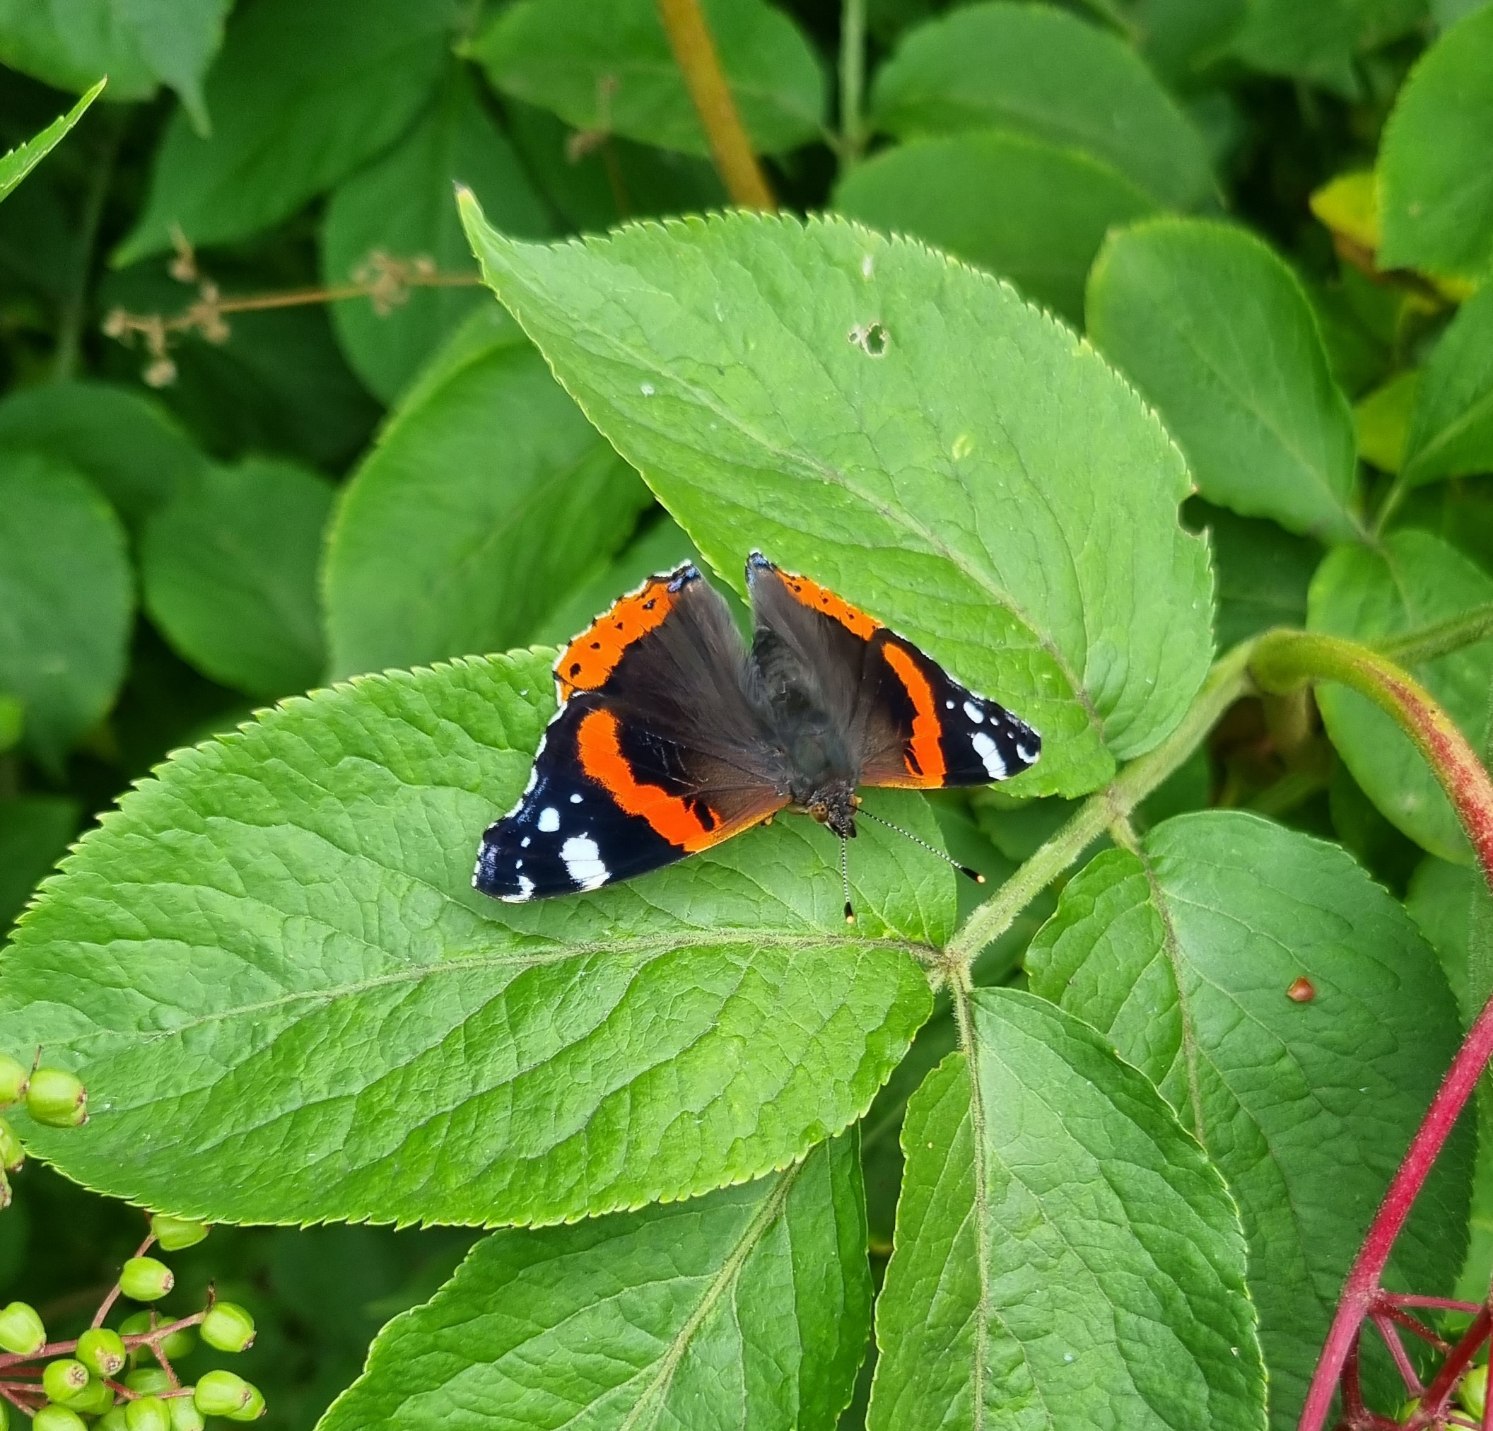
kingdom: Animalia
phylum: Arthropoda
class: Insecta
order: Lepidoptera
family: Nymphalidae
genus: Vanessa
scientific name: Vanessa atalanta
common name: Admiral
